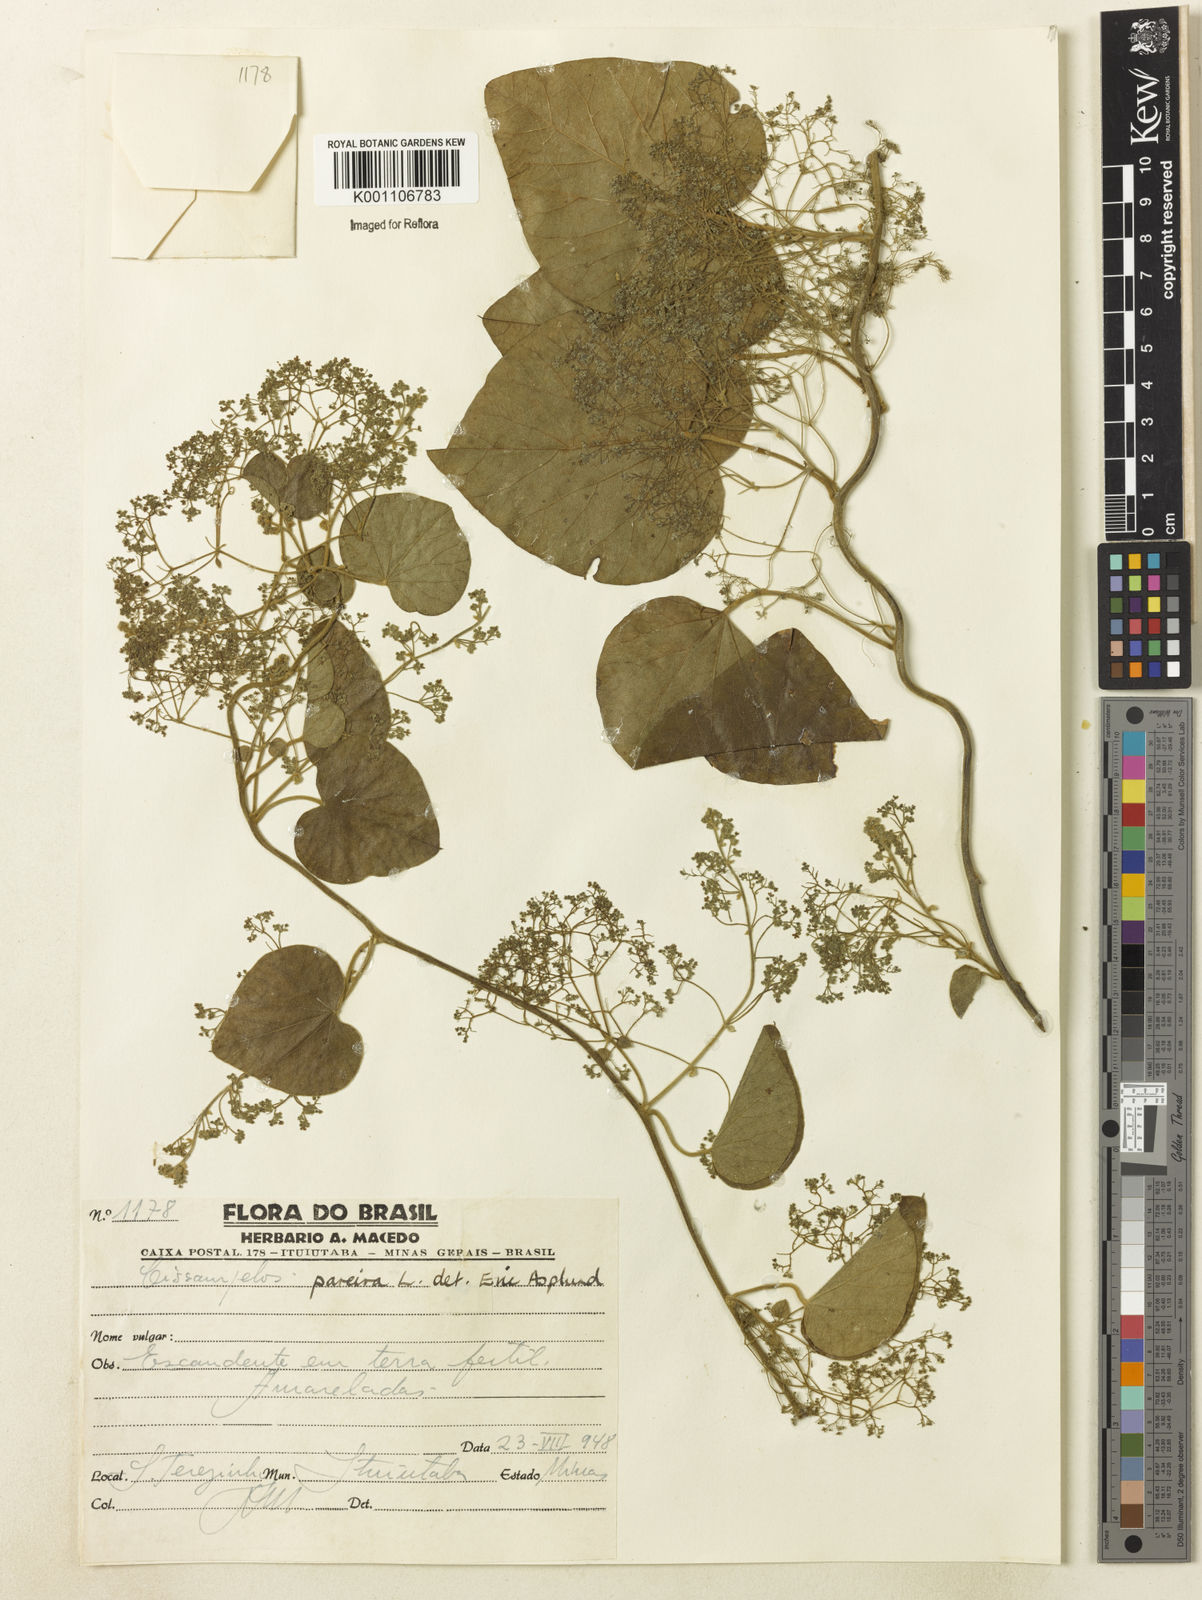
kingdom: Plantae
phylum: Tracheophyta
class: Magnoliopsida
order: Ranunculales
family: Menispermaceae
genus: Cissampelos
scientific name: Cissampelos pareira
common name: Velvetleaf
